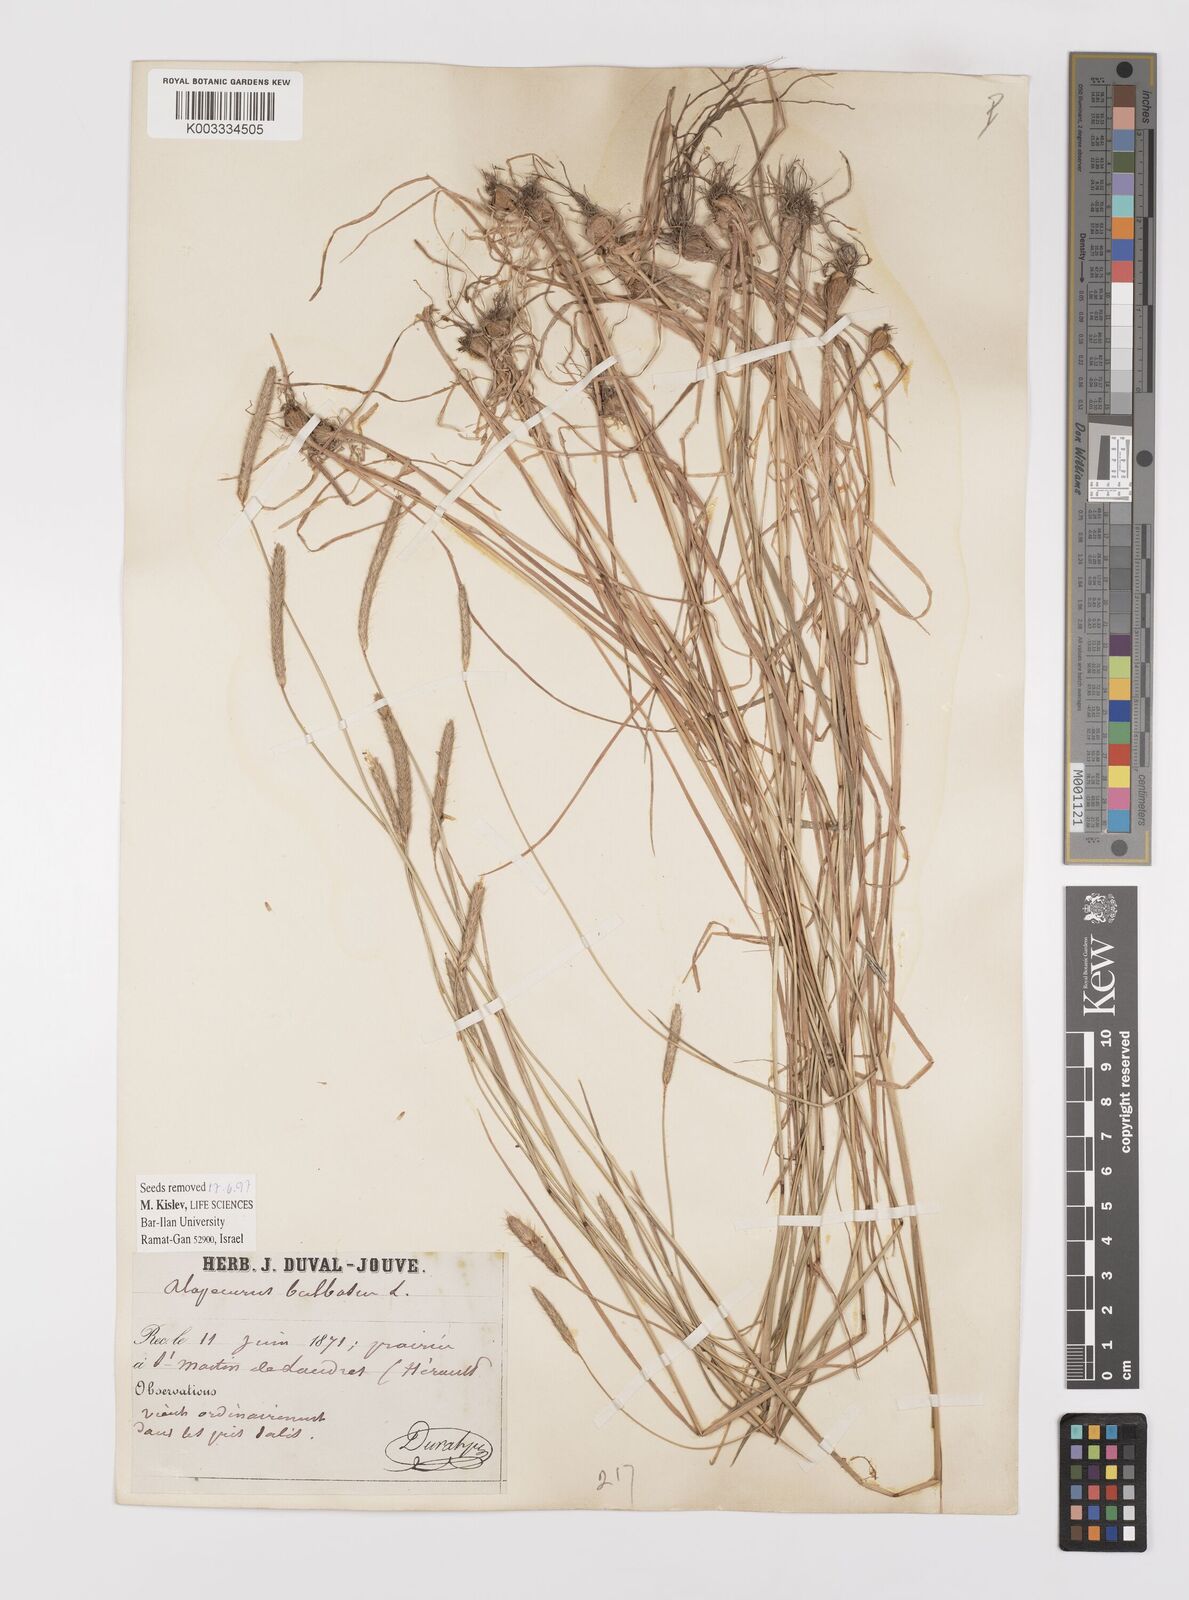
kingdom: Plantae
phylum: Tracheophyta
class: Liliopsida
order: Poales
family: Poaceae
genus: Alopecurus
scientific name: Alopecurus bulbosus
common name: Bulbous foxtail
